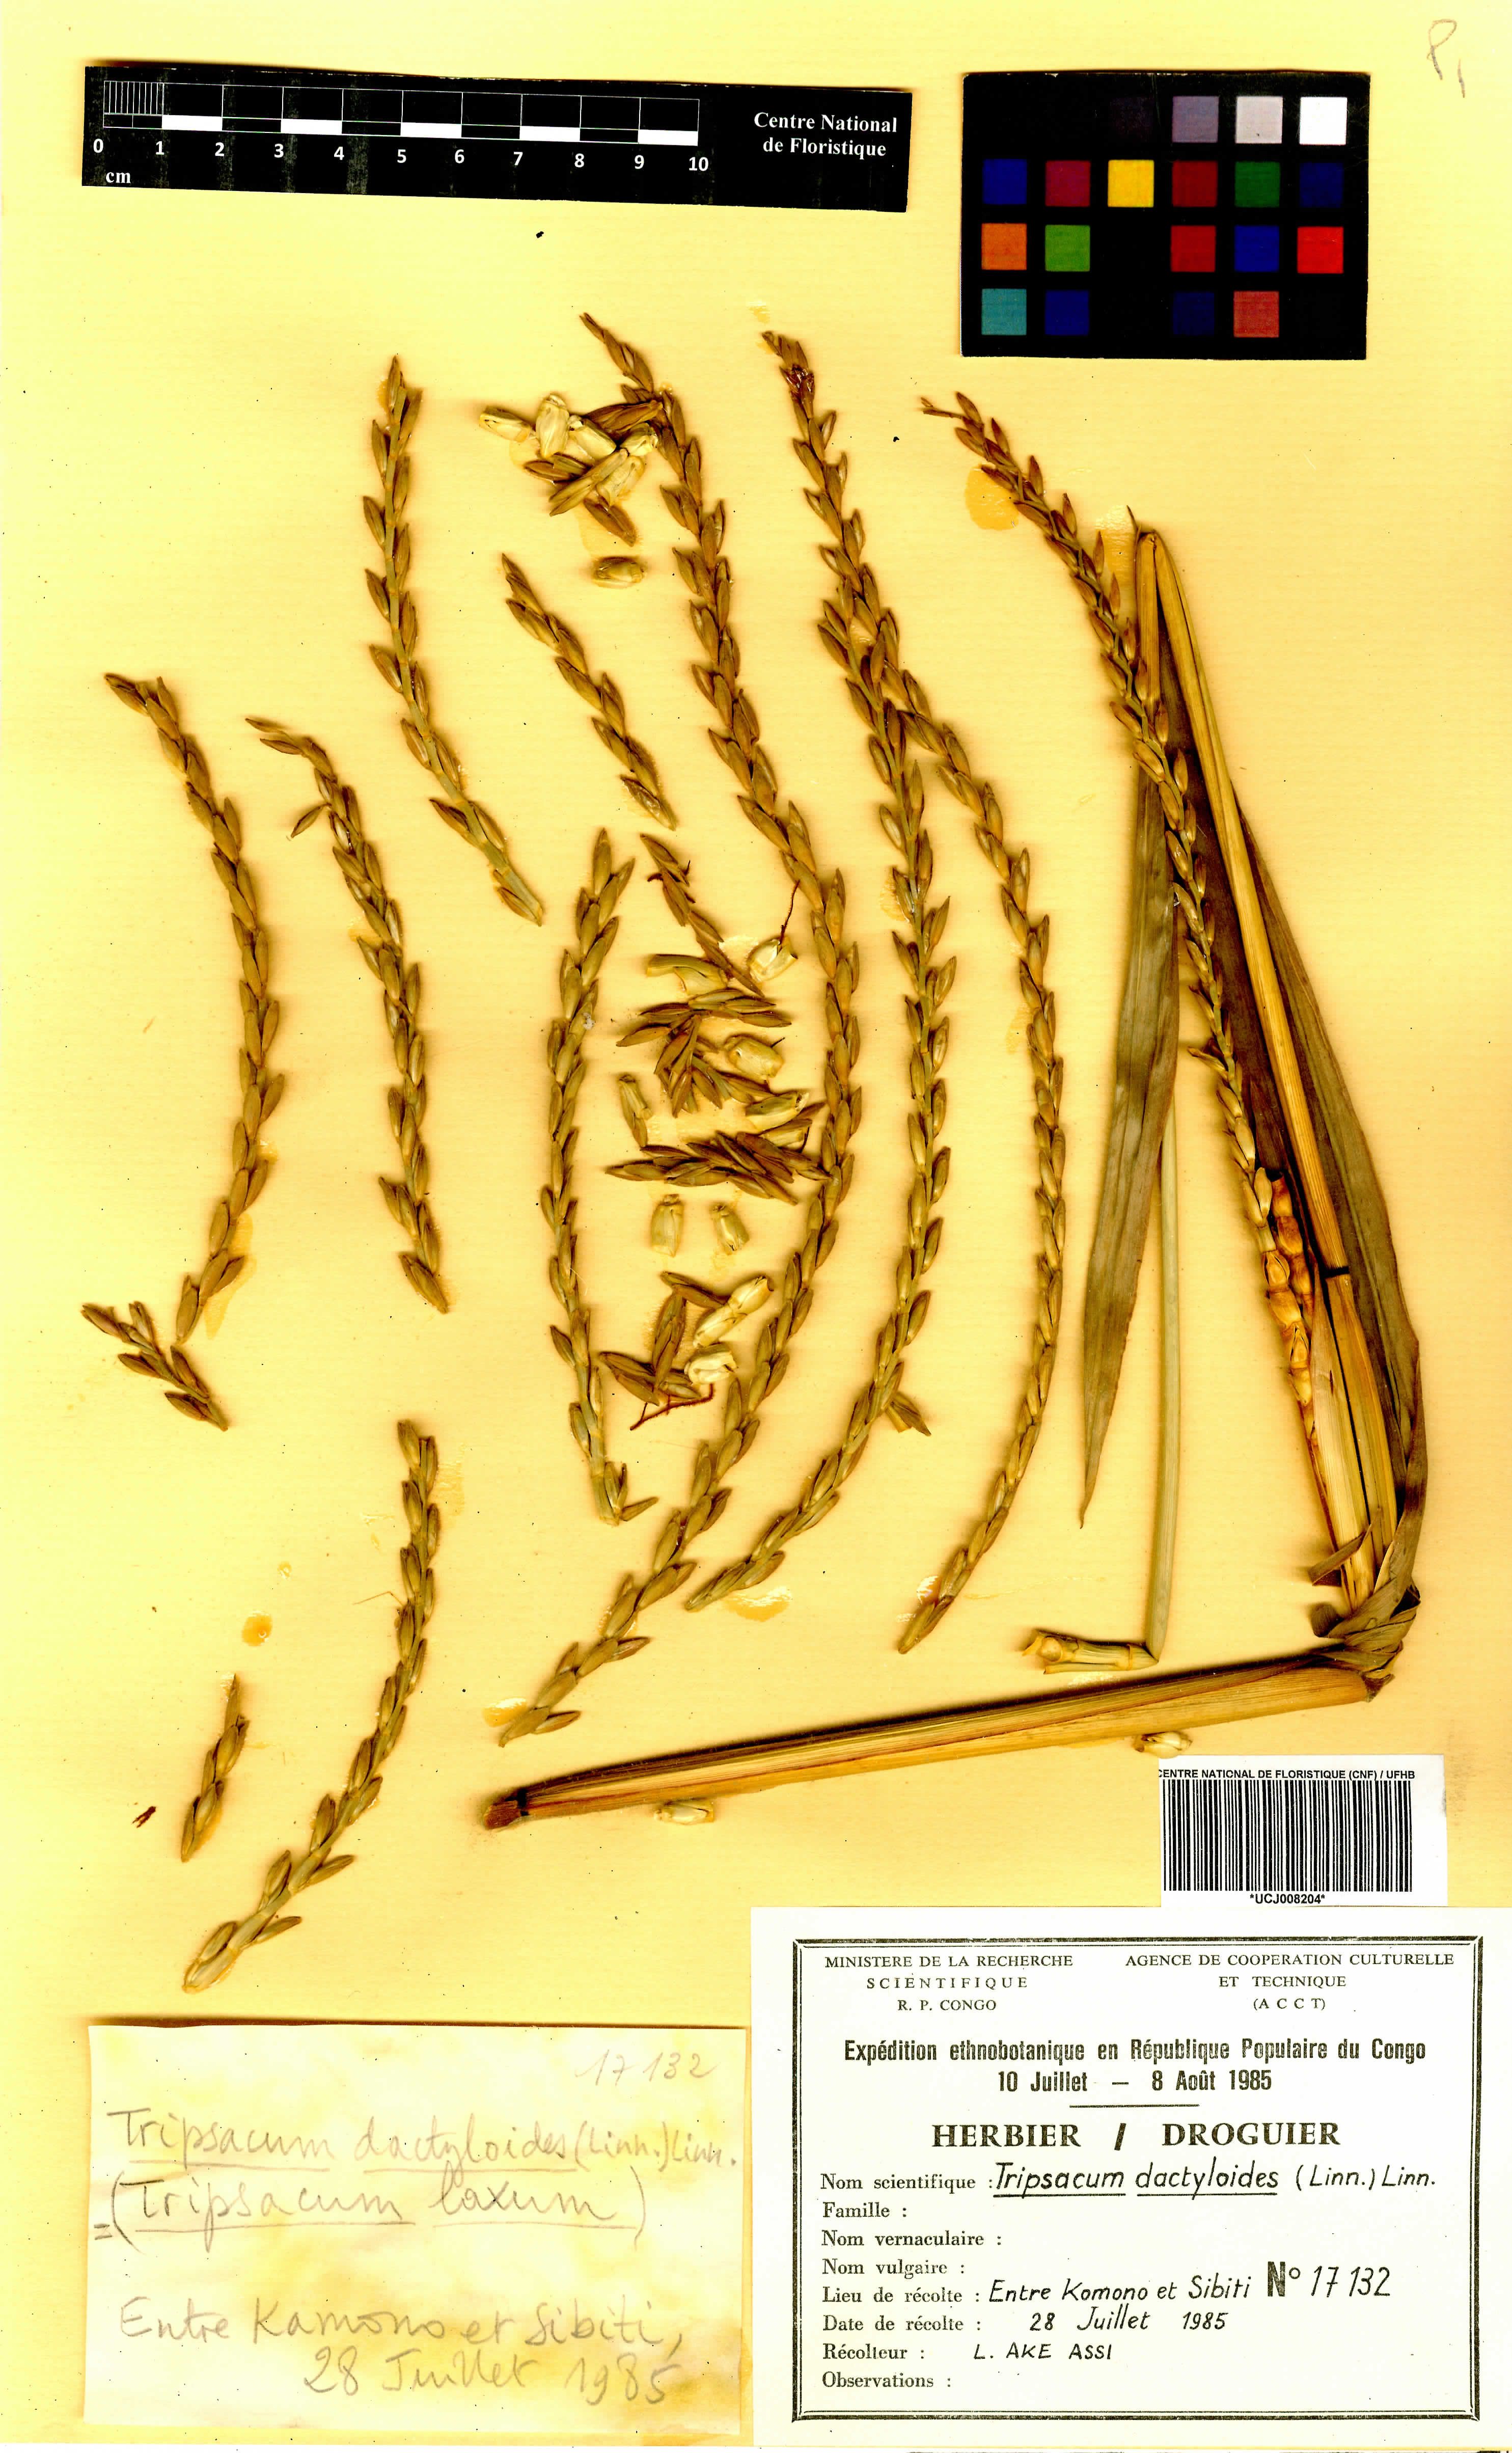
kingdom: Plantae
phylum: Tracheophyta
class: Liliopsida
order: Poales
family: Poaceae
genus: Tripsacum
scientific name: Tripsacum dactyloides
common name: Buffalo-grass
